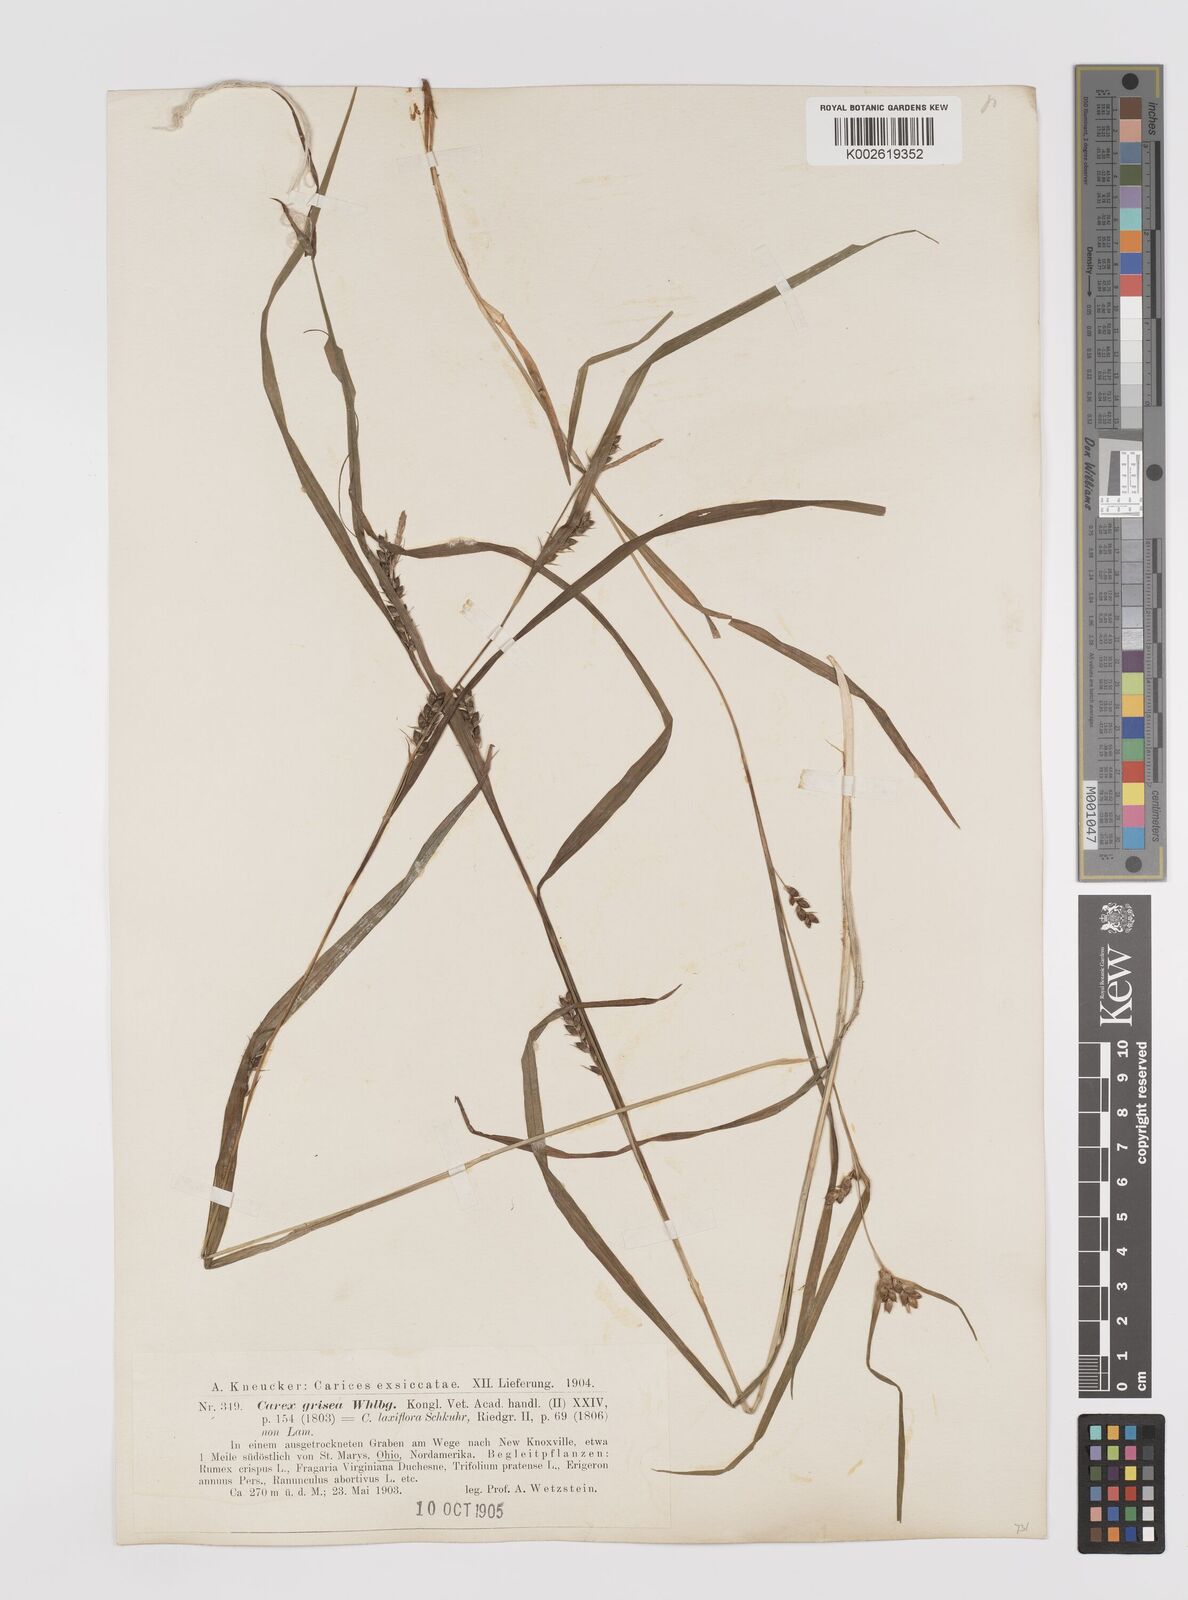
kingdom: Plantae
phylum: Tracheophyta
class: Liliopsida
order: Poales
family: Cyperaceae
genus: Carex
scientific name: Carex grisea
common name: Eastern narrow-leaved sedge
